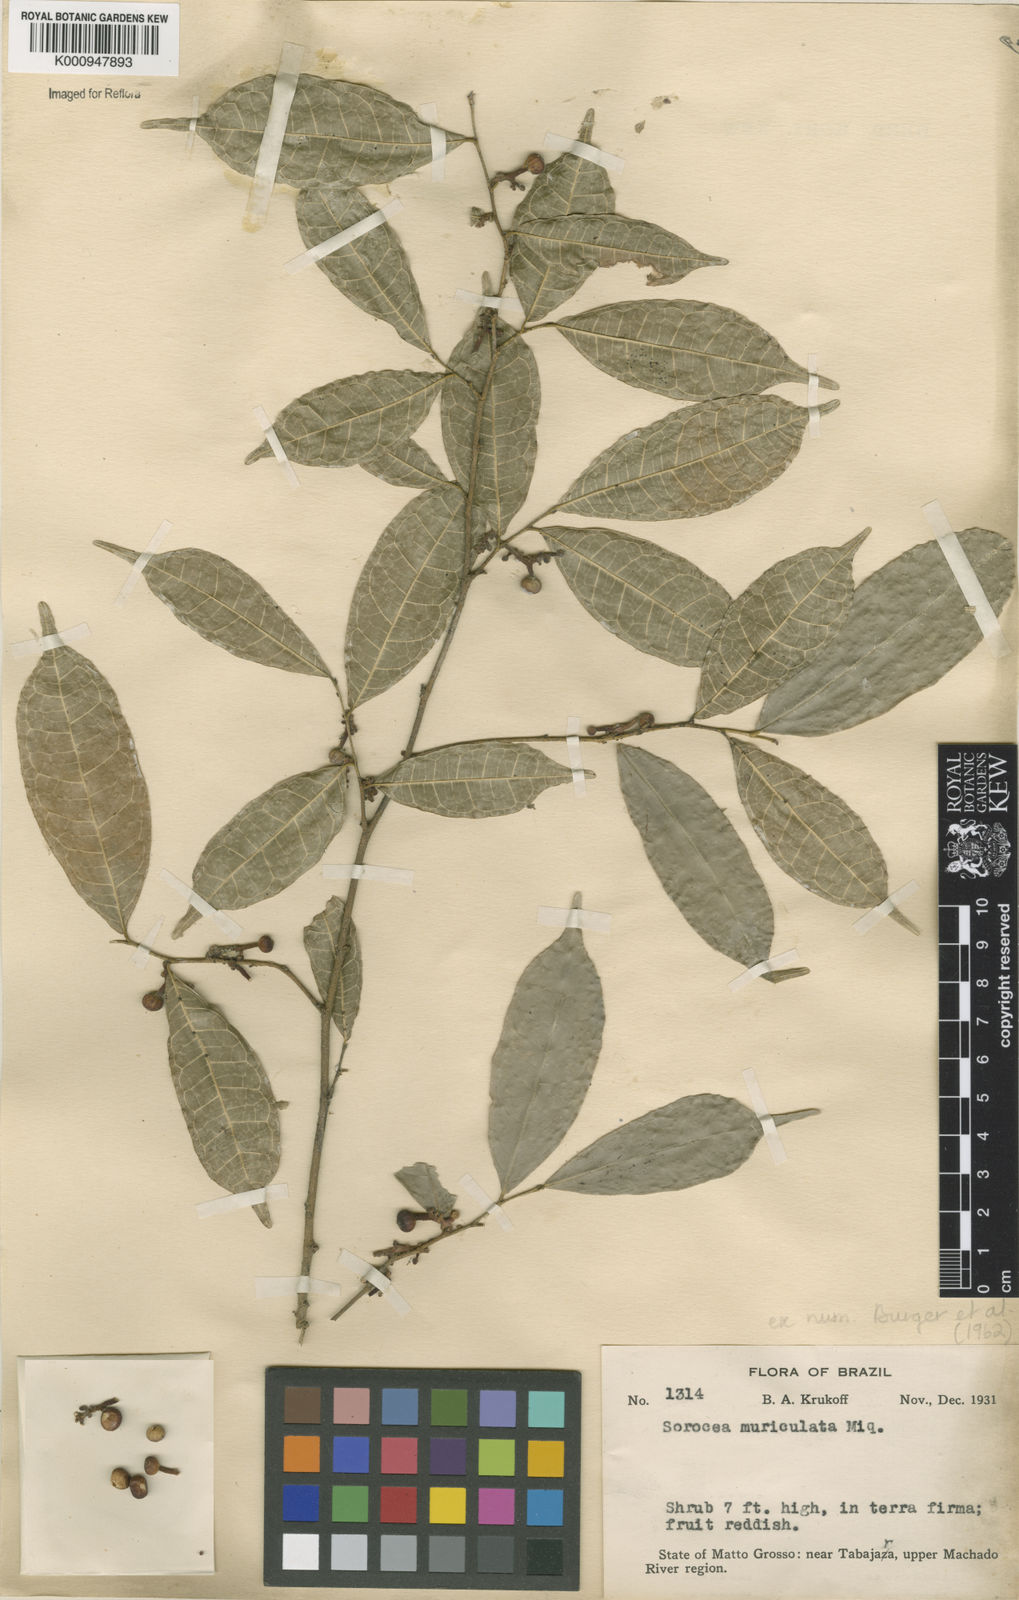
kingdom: Plantae
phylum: Tracheophyta
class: Magnoliopsida
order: Rosales
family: Moraceae
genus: Sorocea
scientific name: Sorocea muriculata
